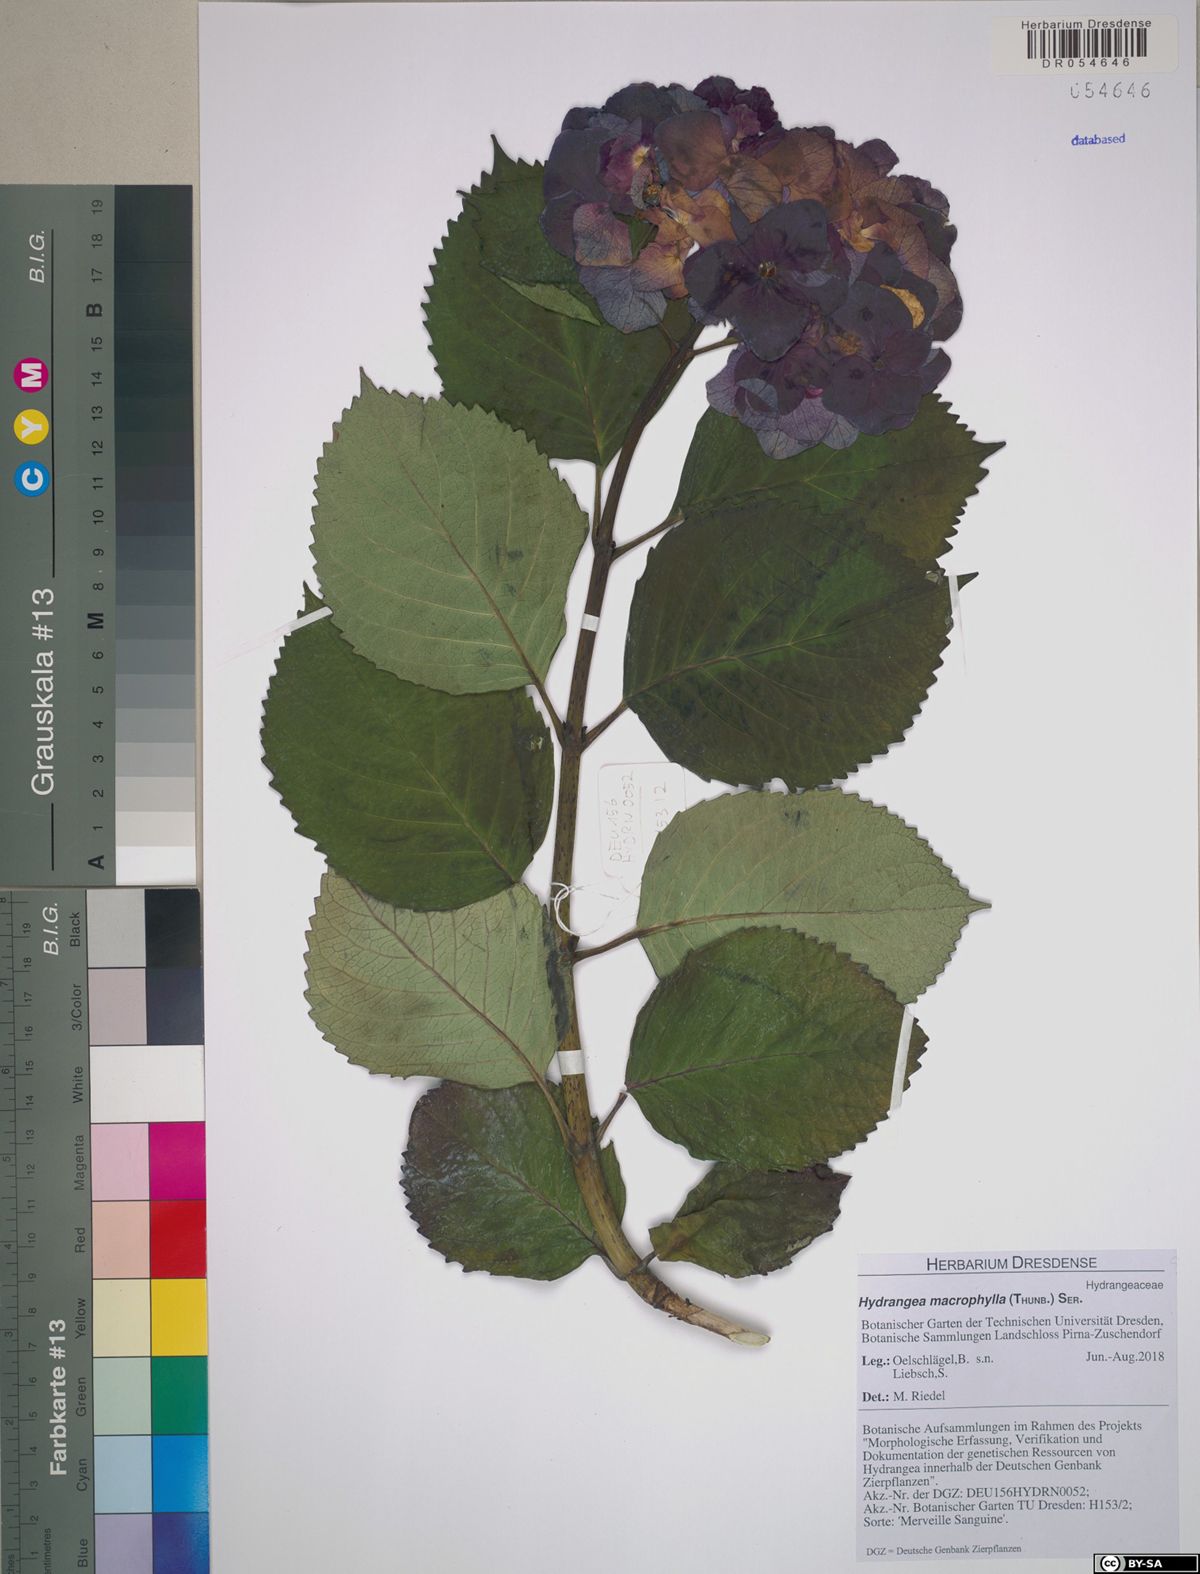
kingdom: Plantae
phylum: Tracheophyta
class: Magnoliopsida
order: Cornales
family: Hydrangeaceae
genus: Hydrangea
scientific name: Hydrangea macrophylla
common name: Hydrangea
